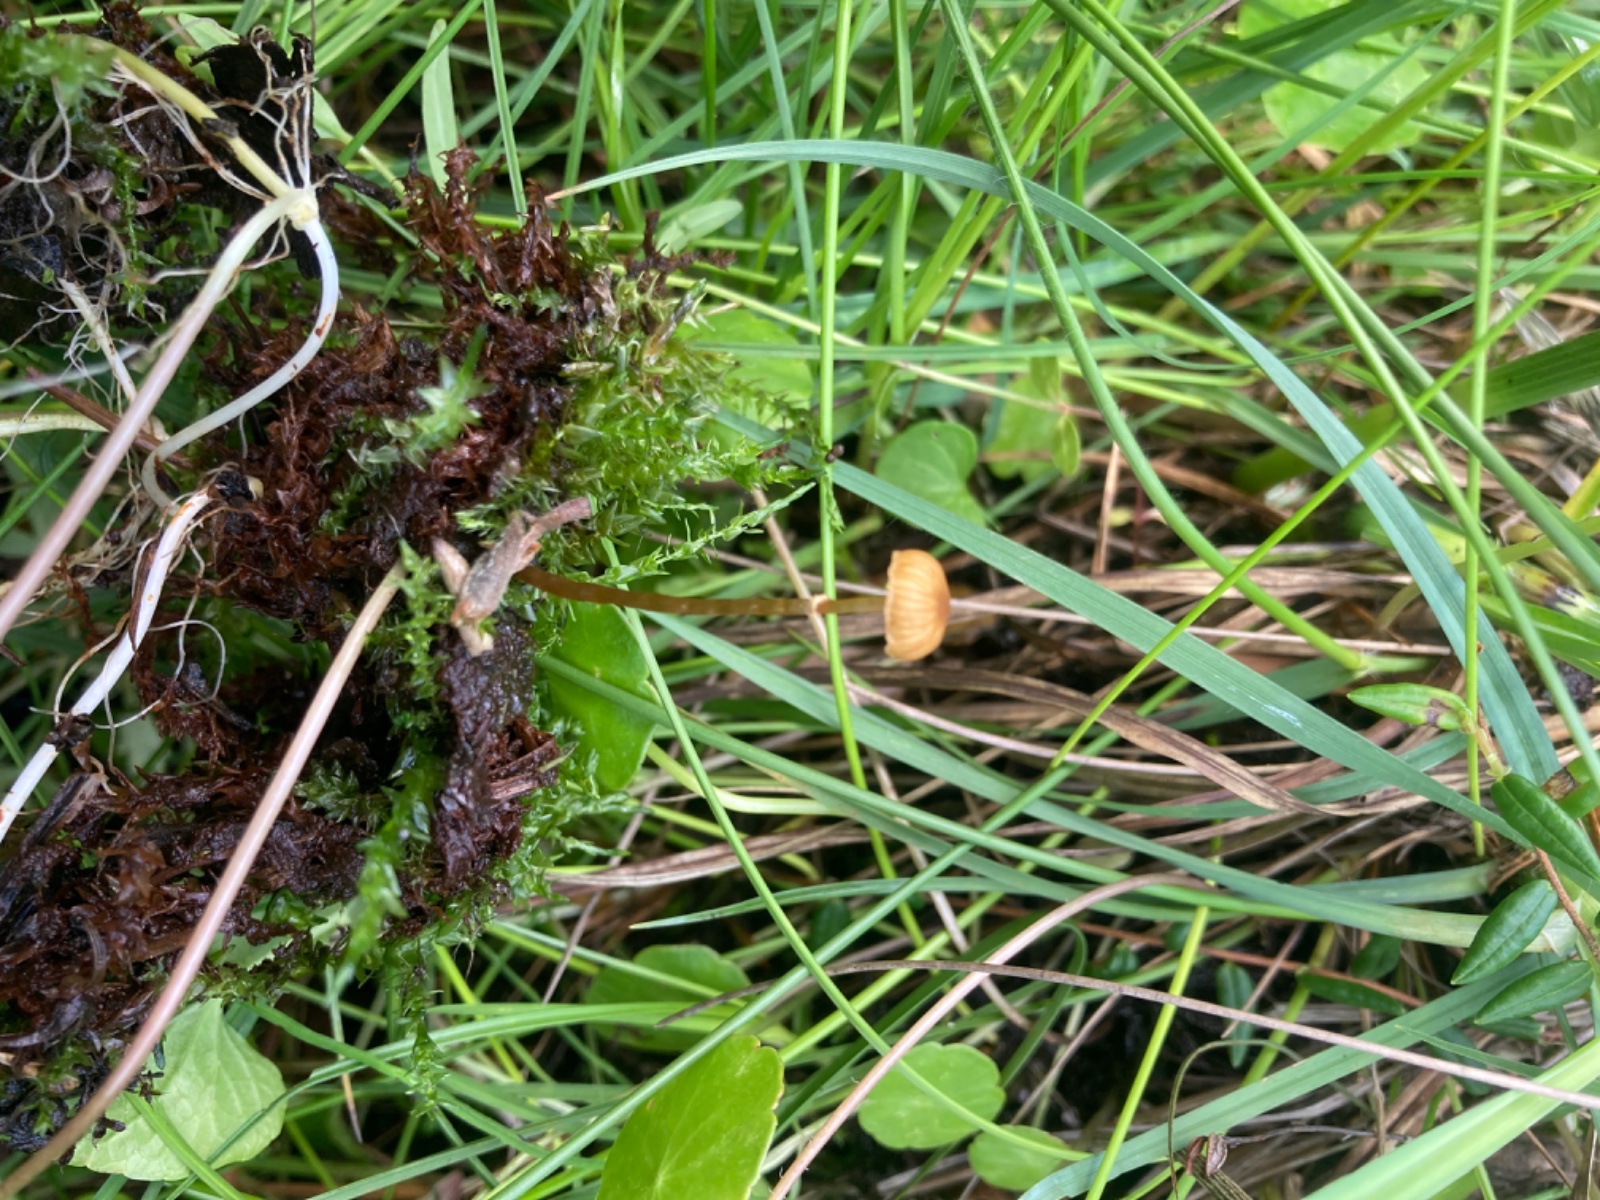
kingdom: Fungi
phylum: Basidiomycota
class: Agaricomycetes
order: Agaricales
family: Hymenogastraceae
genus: Galerina
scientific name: Galerina jaapii
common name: hvidbæltet hjelmhat
